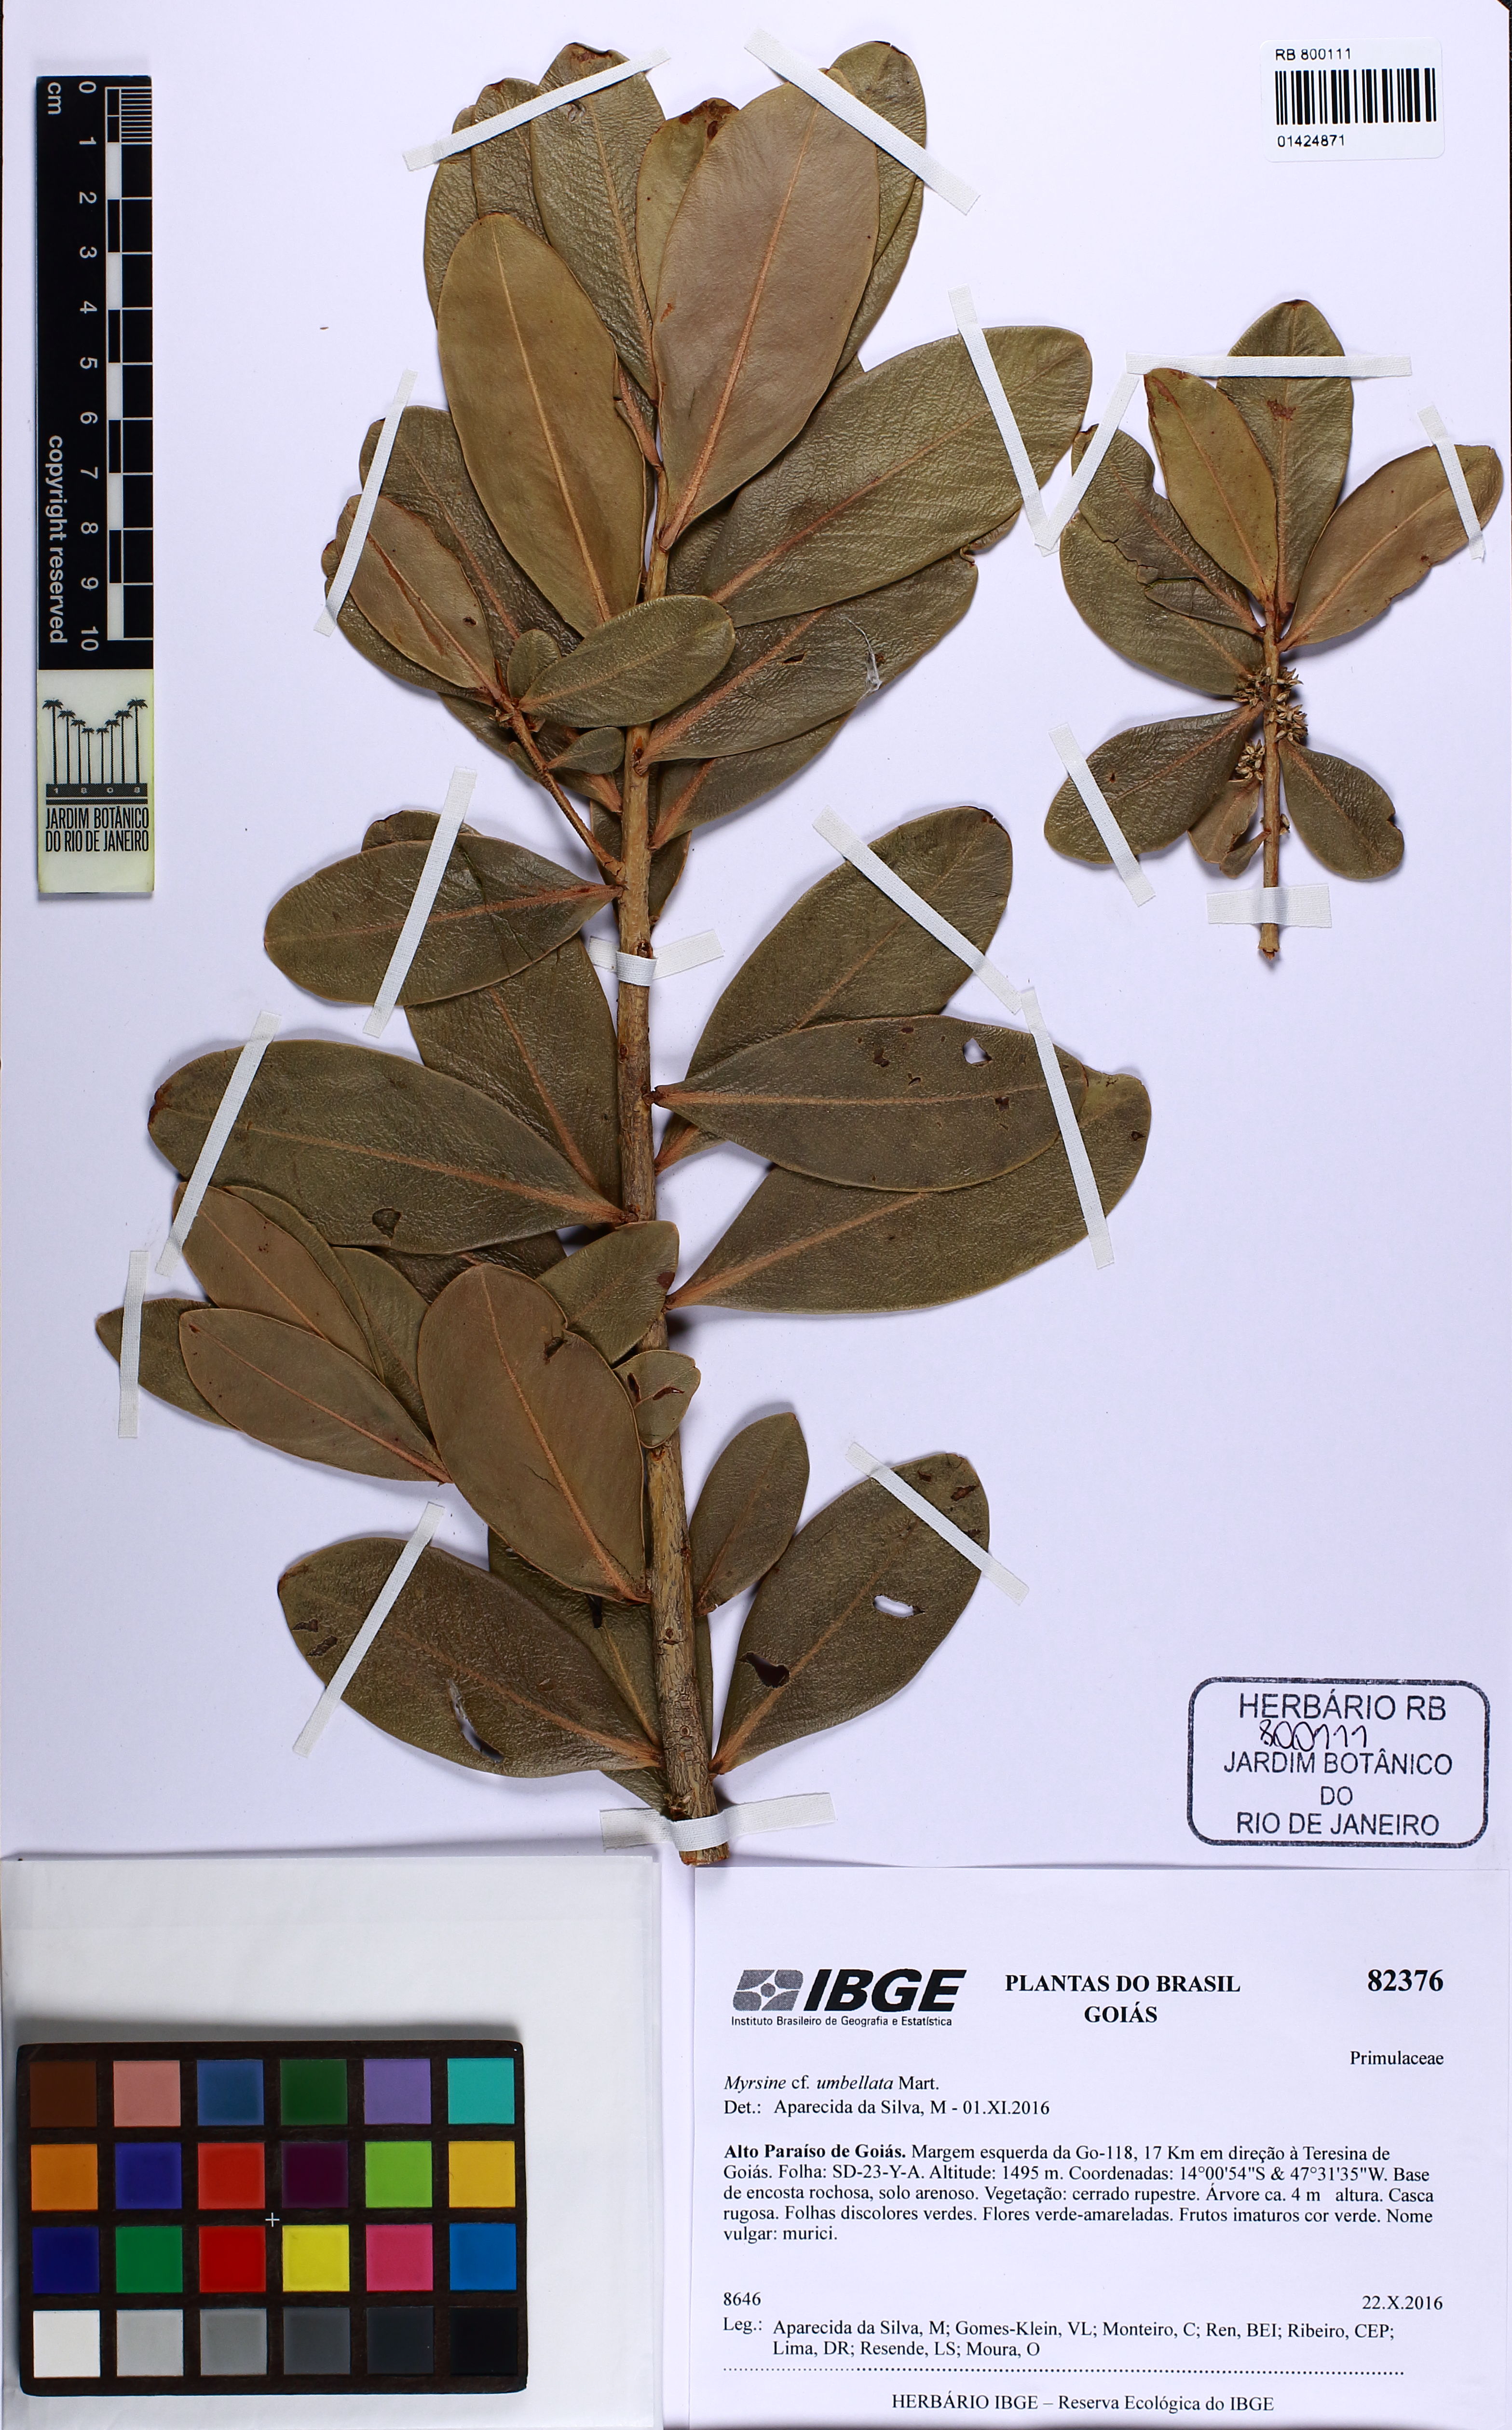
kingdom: Plantae
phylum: Tracheophyta
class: Magnoliopsida
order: Ericales
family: Primulaceae
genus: Myrsine
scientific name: Myrsine umbellata
